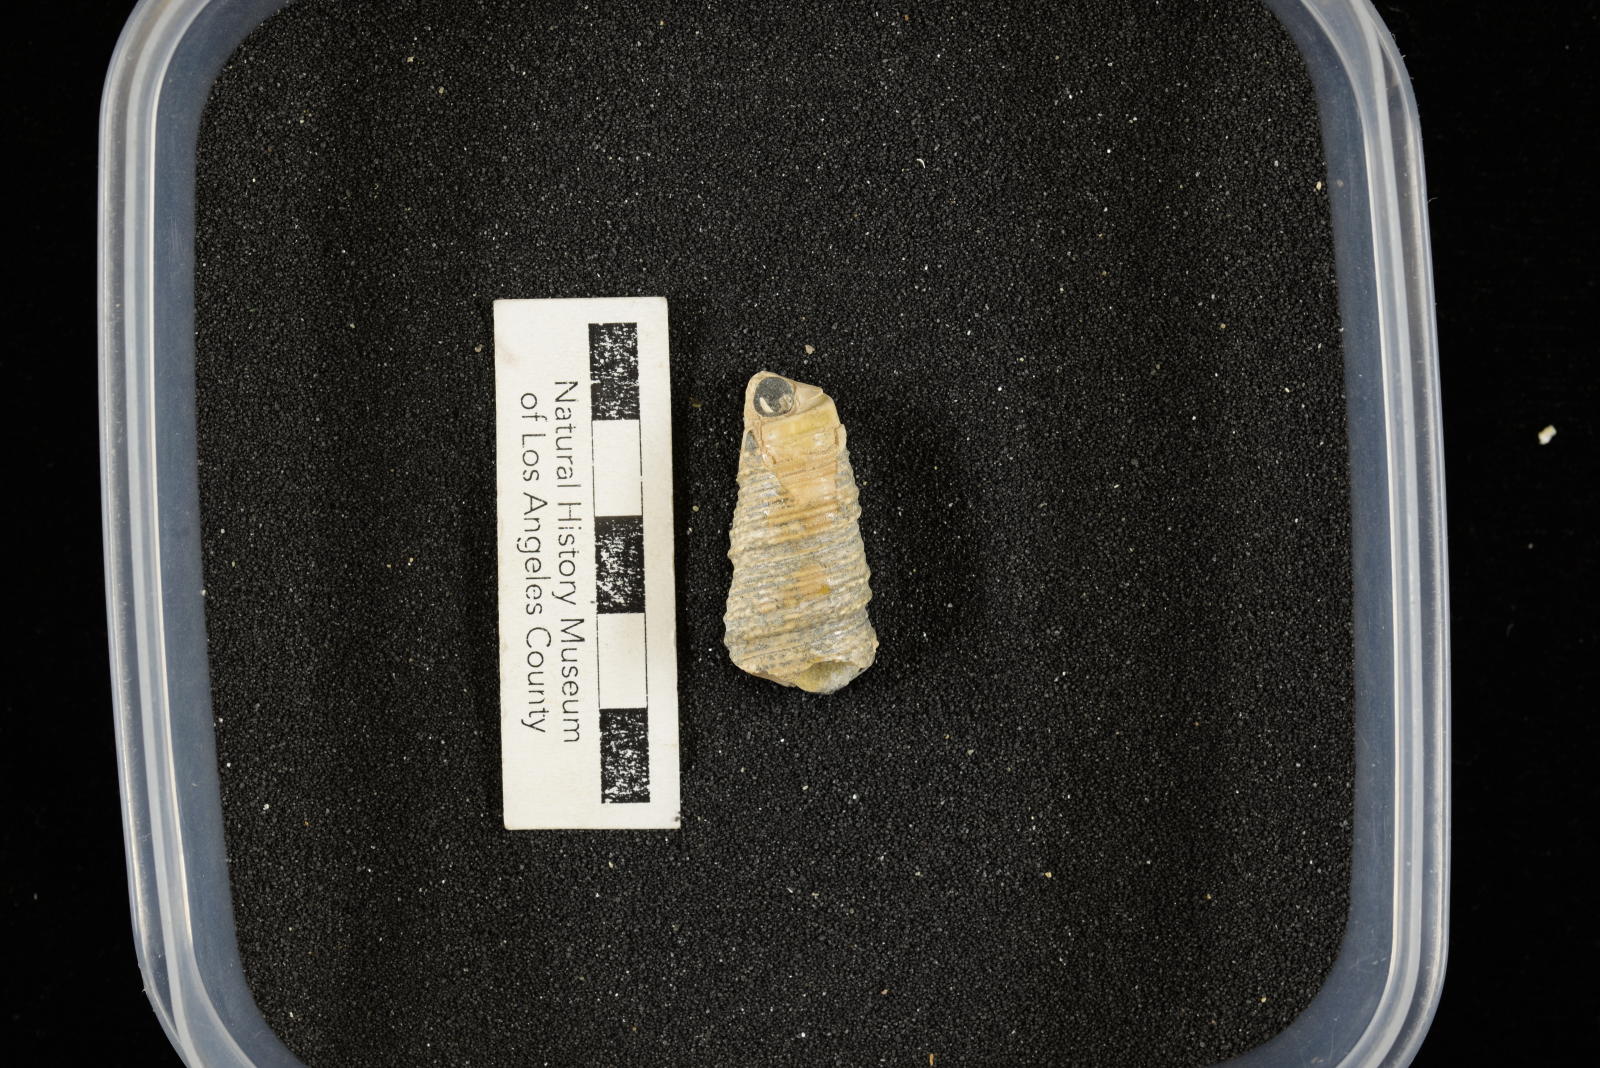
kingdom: Animalia
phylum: Mollusca
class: Gastropoda
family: Turritellidae
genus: Turritella
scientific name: Turritella chicoensis
